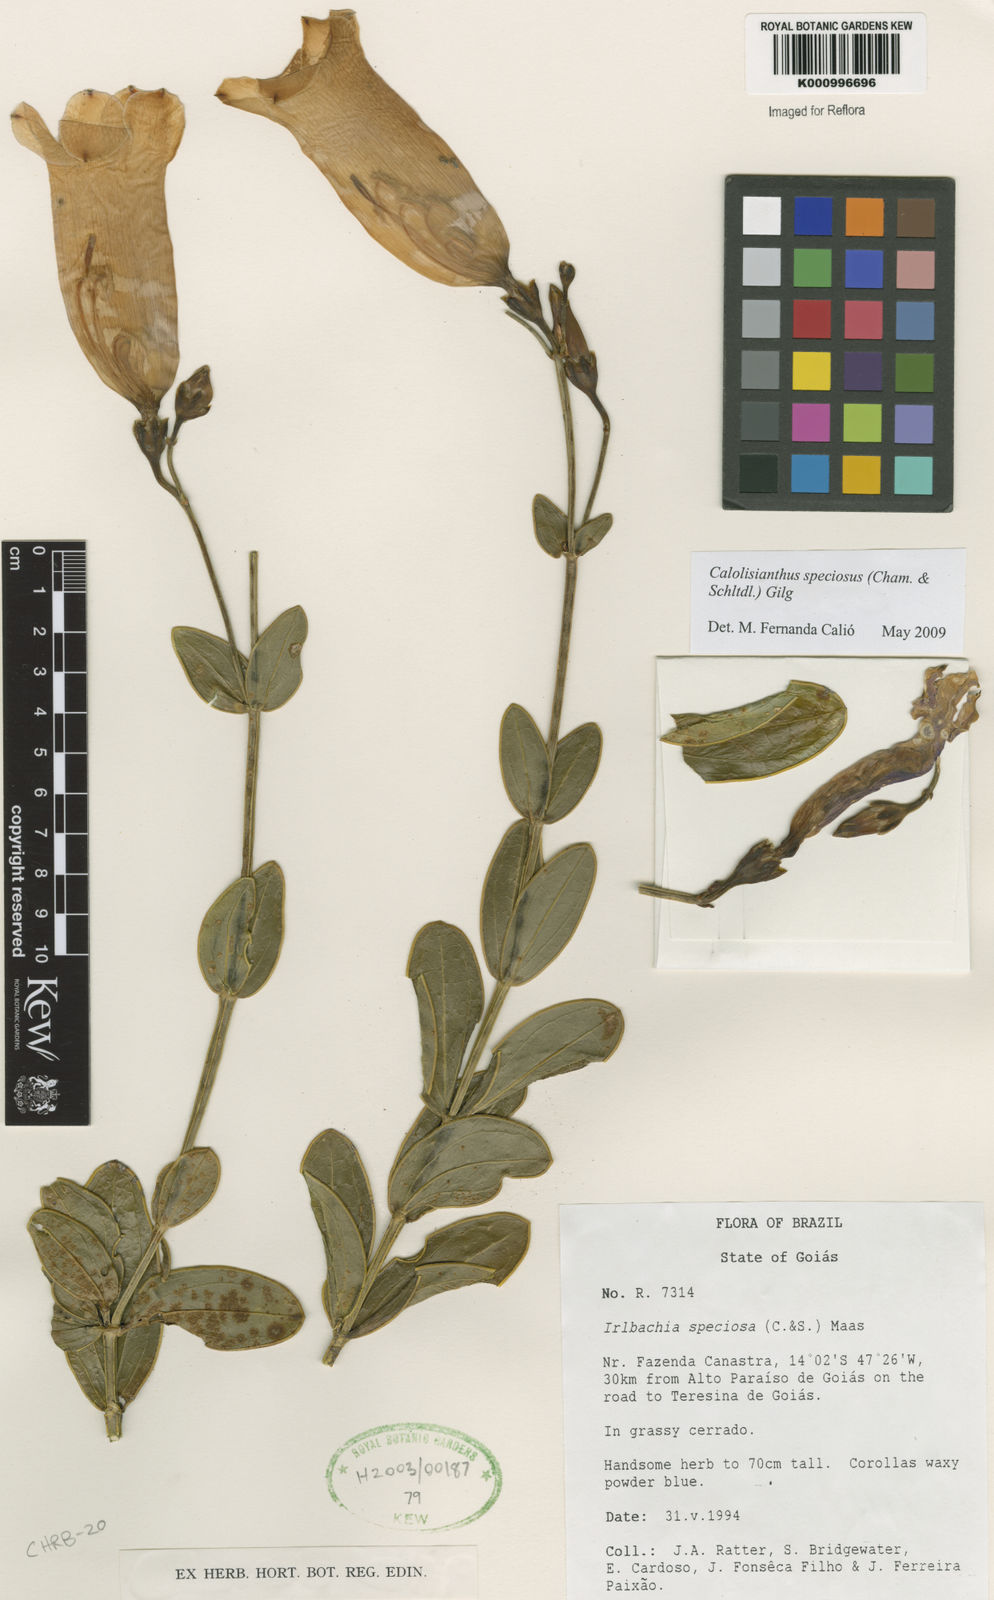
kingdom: Plantae
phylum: Tracheophyta
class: Magnoliopsida
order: Gentianales
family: Gentianaceae
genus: Calolisianthus
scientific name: Calolisianthus speciosus
